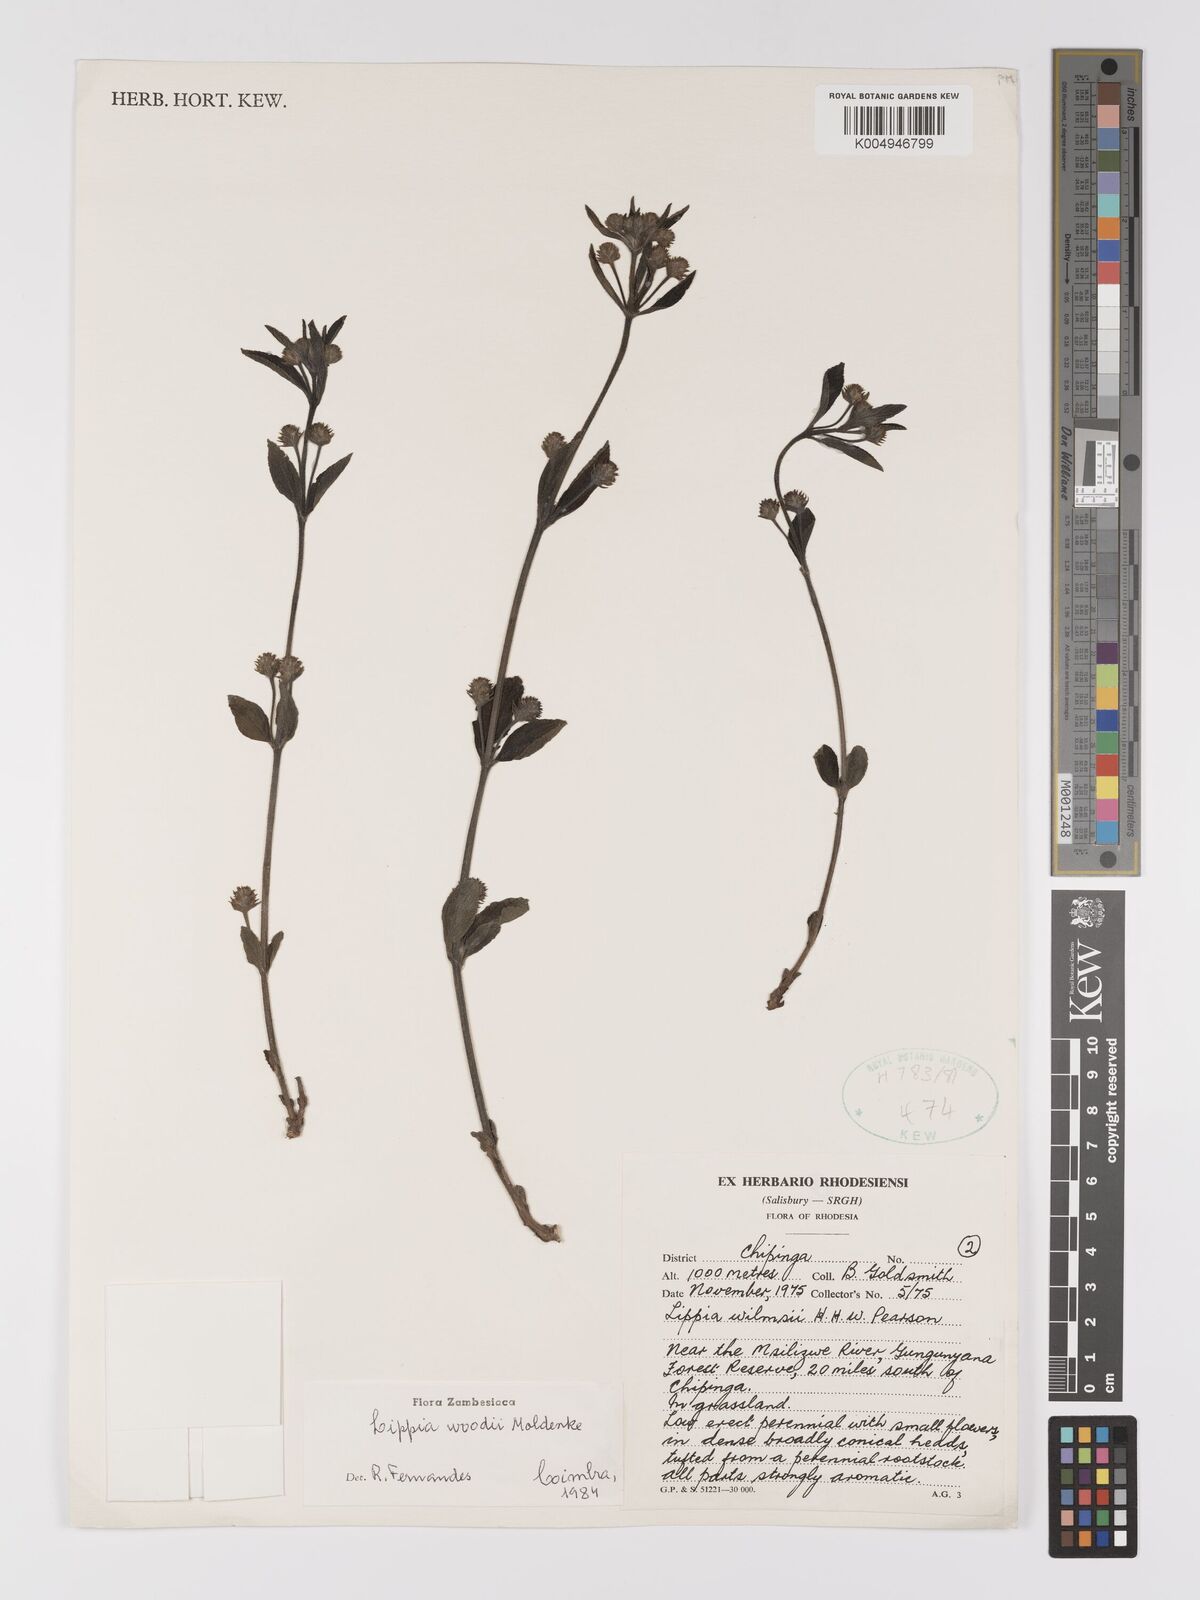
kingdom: Plantae
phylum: Tracheophyta
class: Magnoliopsida
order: Lamiales
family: Verbenaceae
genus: Lippia
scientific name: Lippia woodii
